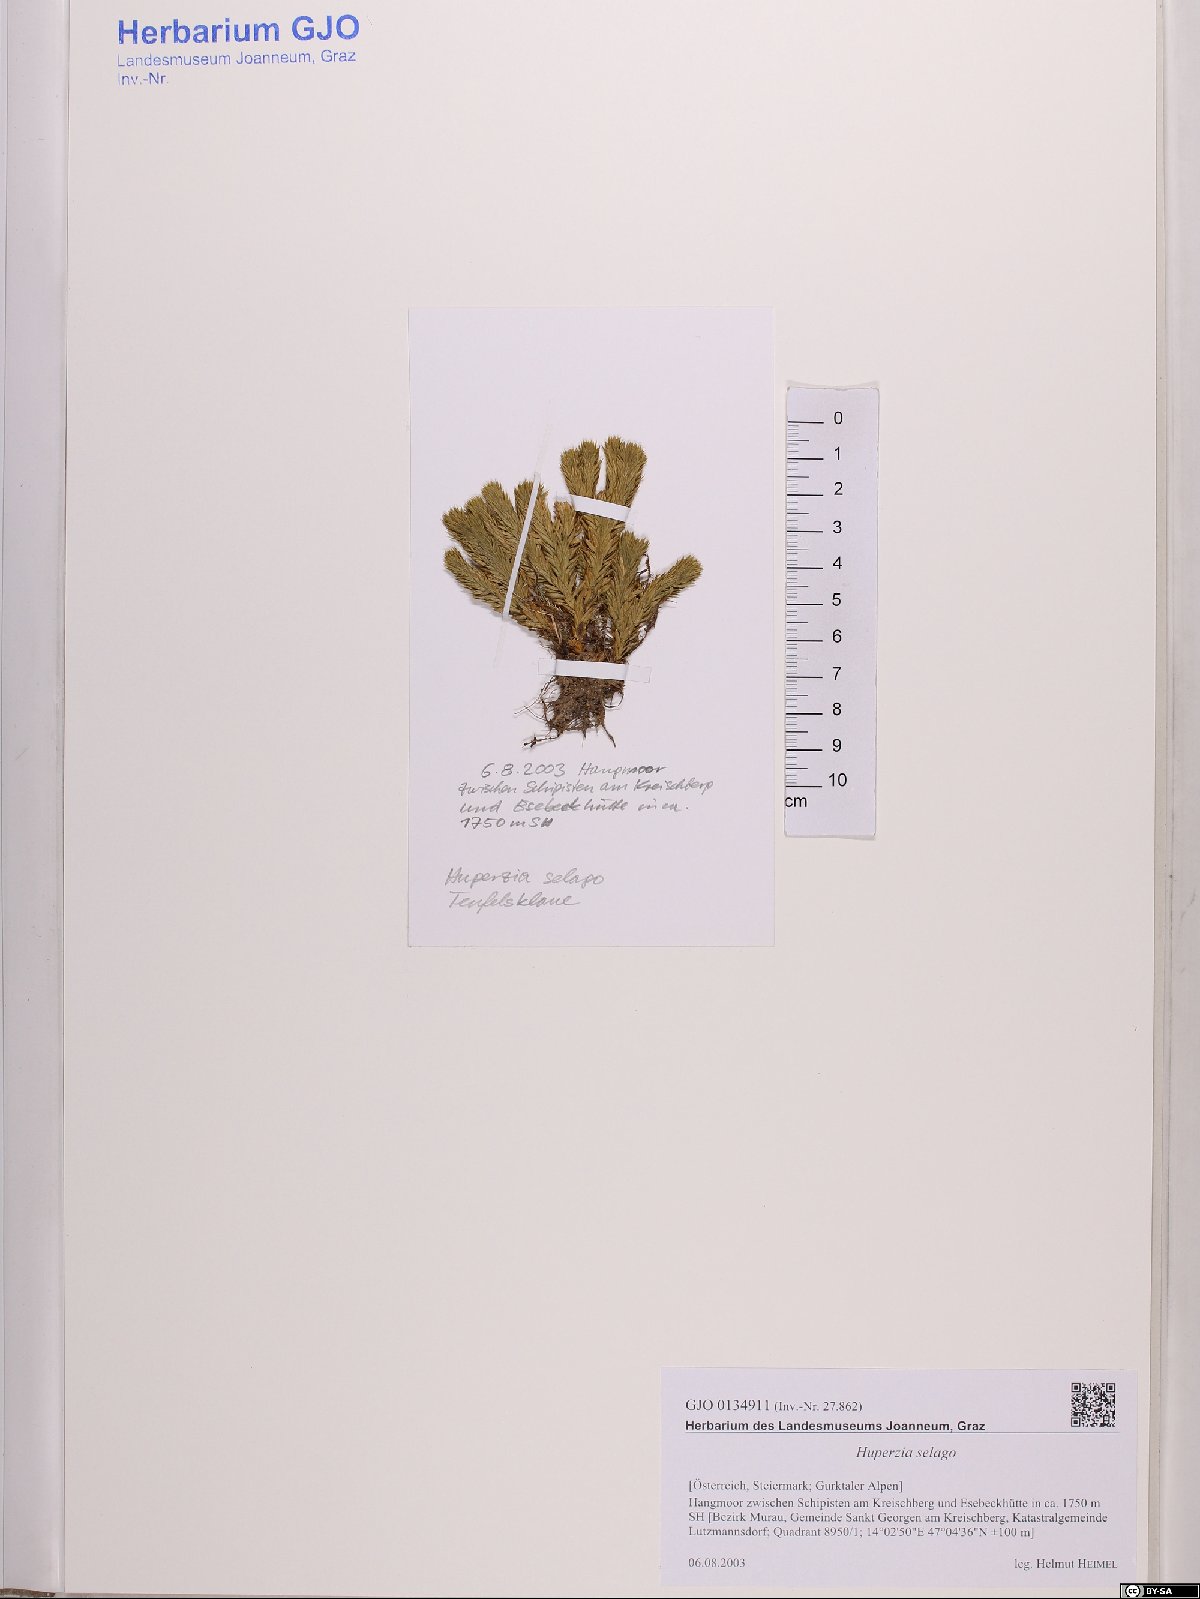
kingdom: Plantae
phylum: Tracheophyta
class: Lycopodiopsida
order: Lycopodiales
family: Lycopodiaceae
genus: Huperzia
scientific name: Huperzia selago
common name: Northern firmoss
